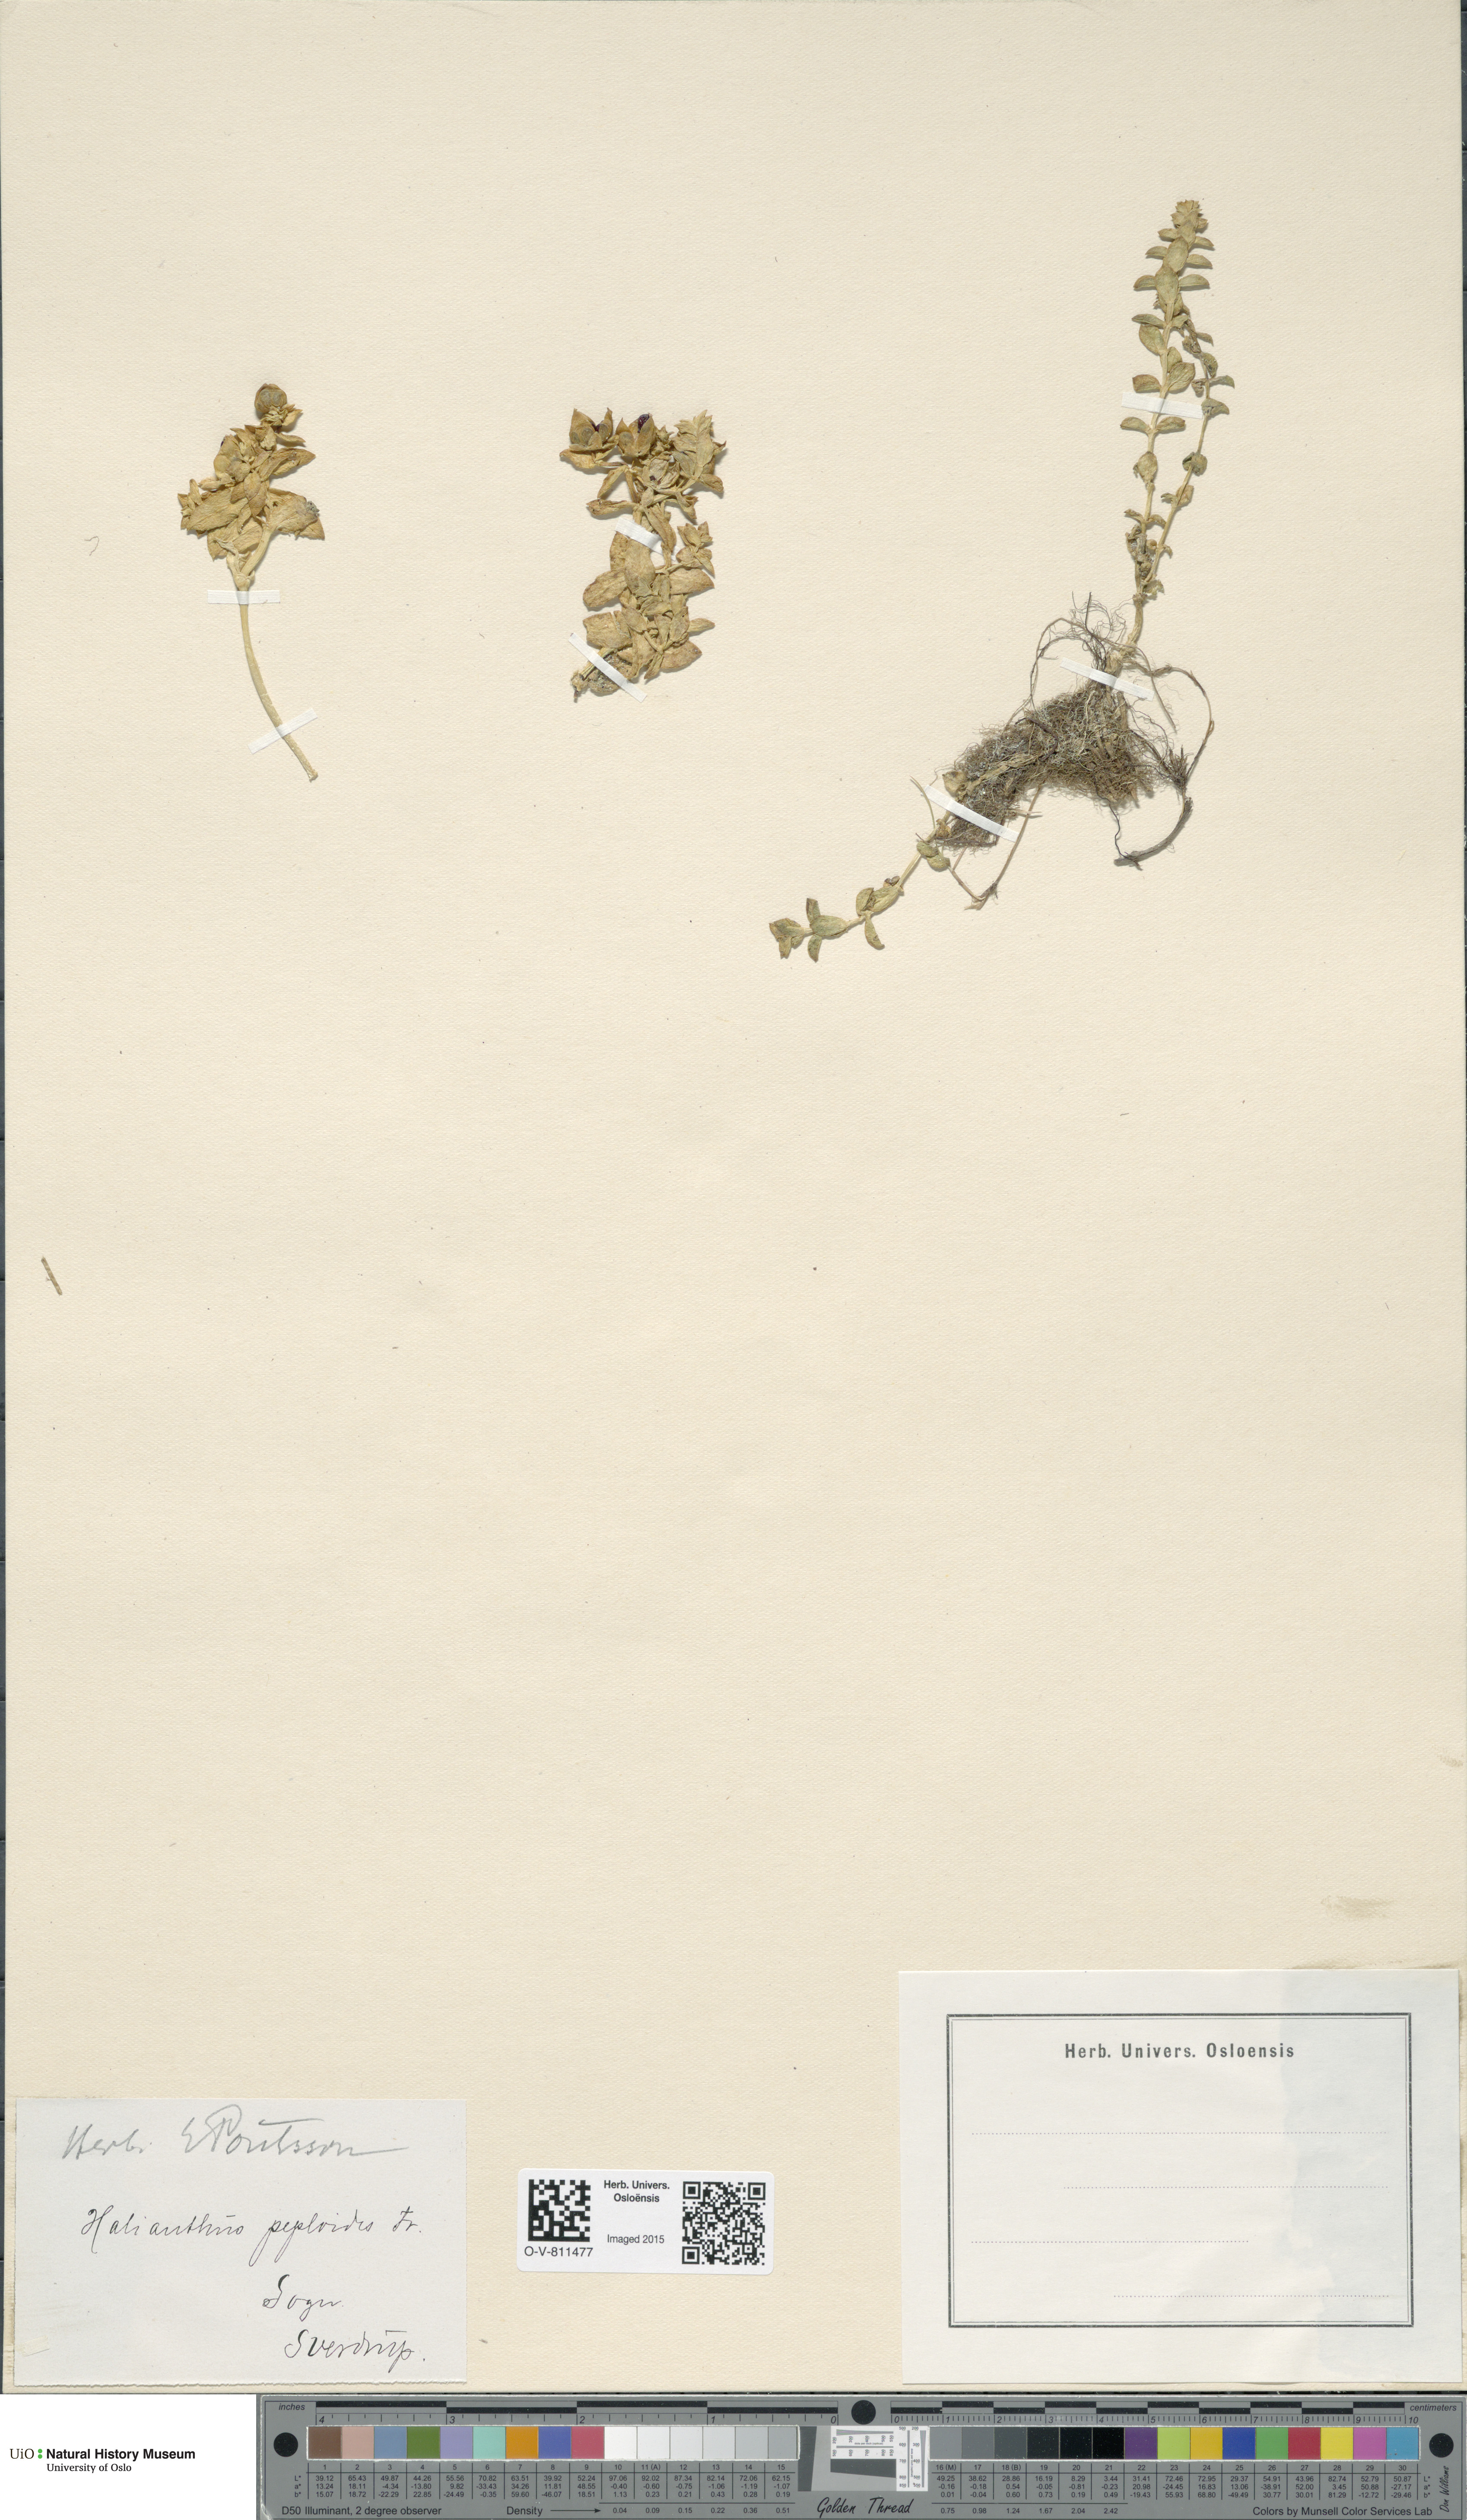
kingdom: Plantae
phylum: Tracheophyta
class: Magnoliopsida
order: Caryophyllales
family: Caryophyllaceae
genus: Honckenya
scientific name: Honckenya peploides
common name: Sea sandwort
